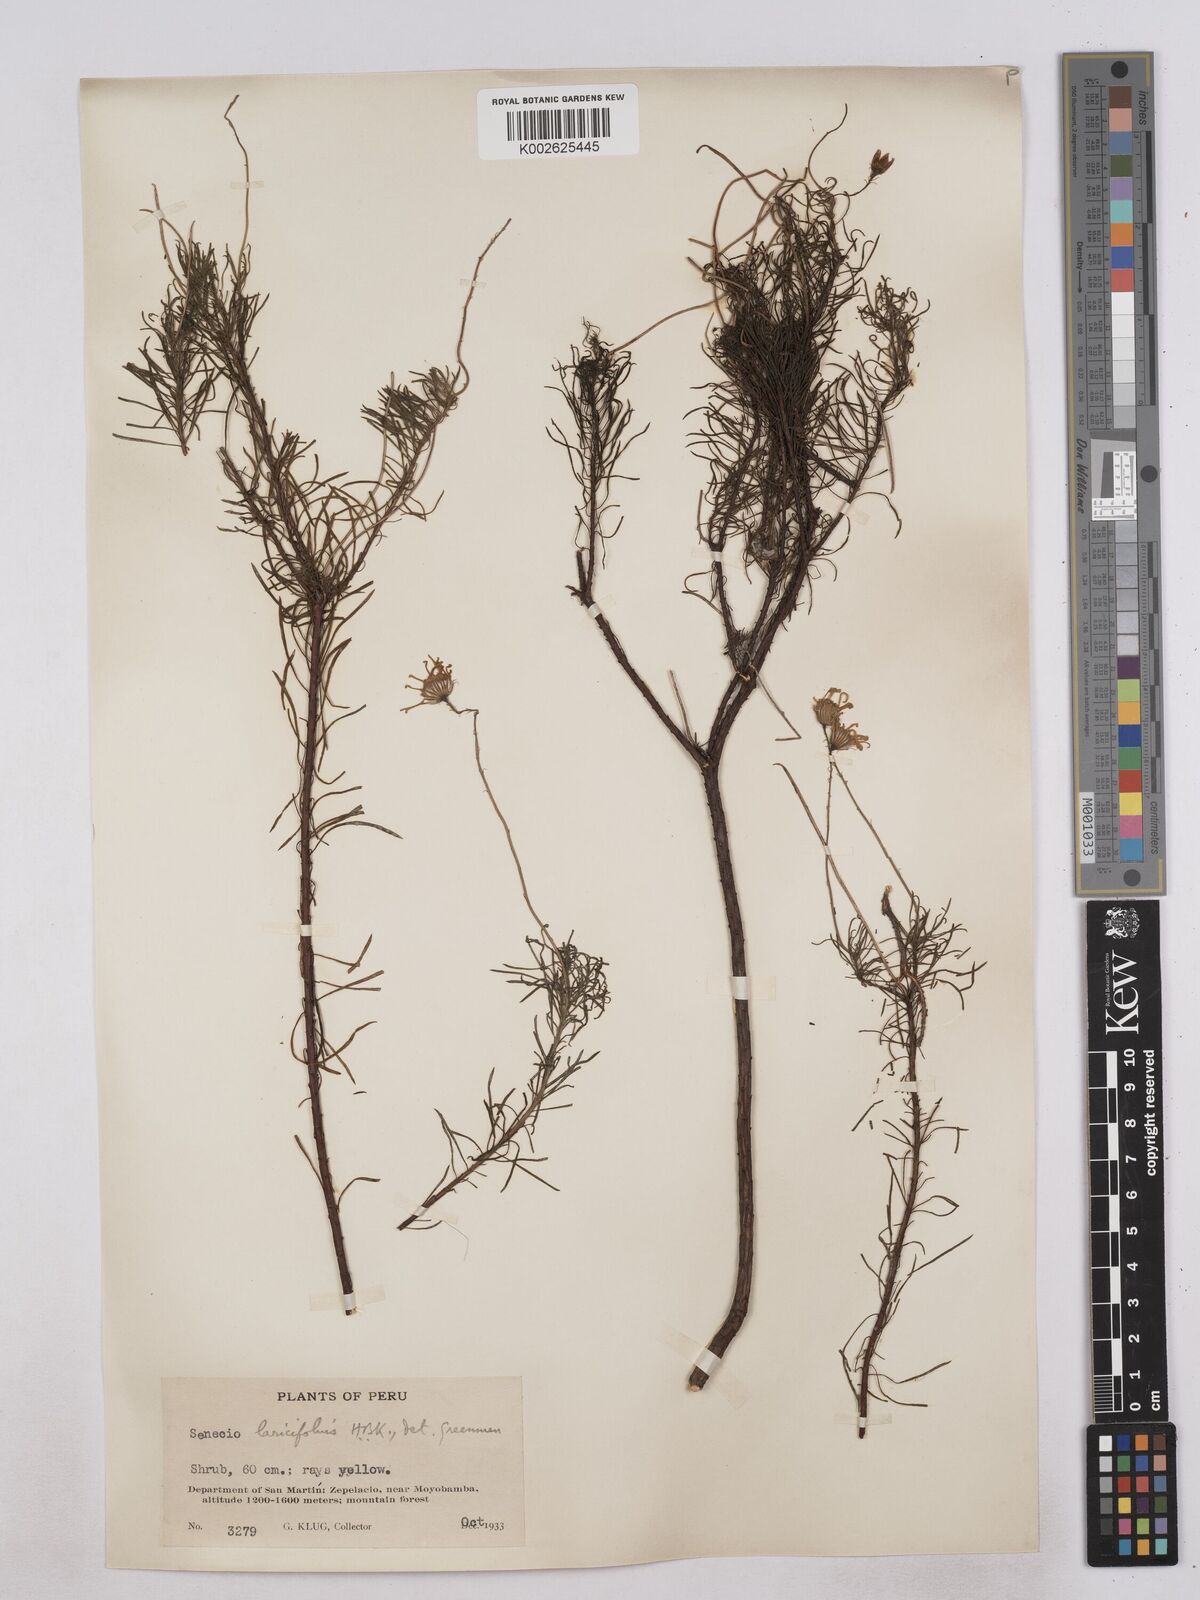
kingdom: Plantae
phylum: Tracheophyta
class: Magnoliopsida
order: Asterales
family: Asteraceae
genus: Senecio
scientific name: Senecio laricifolius
